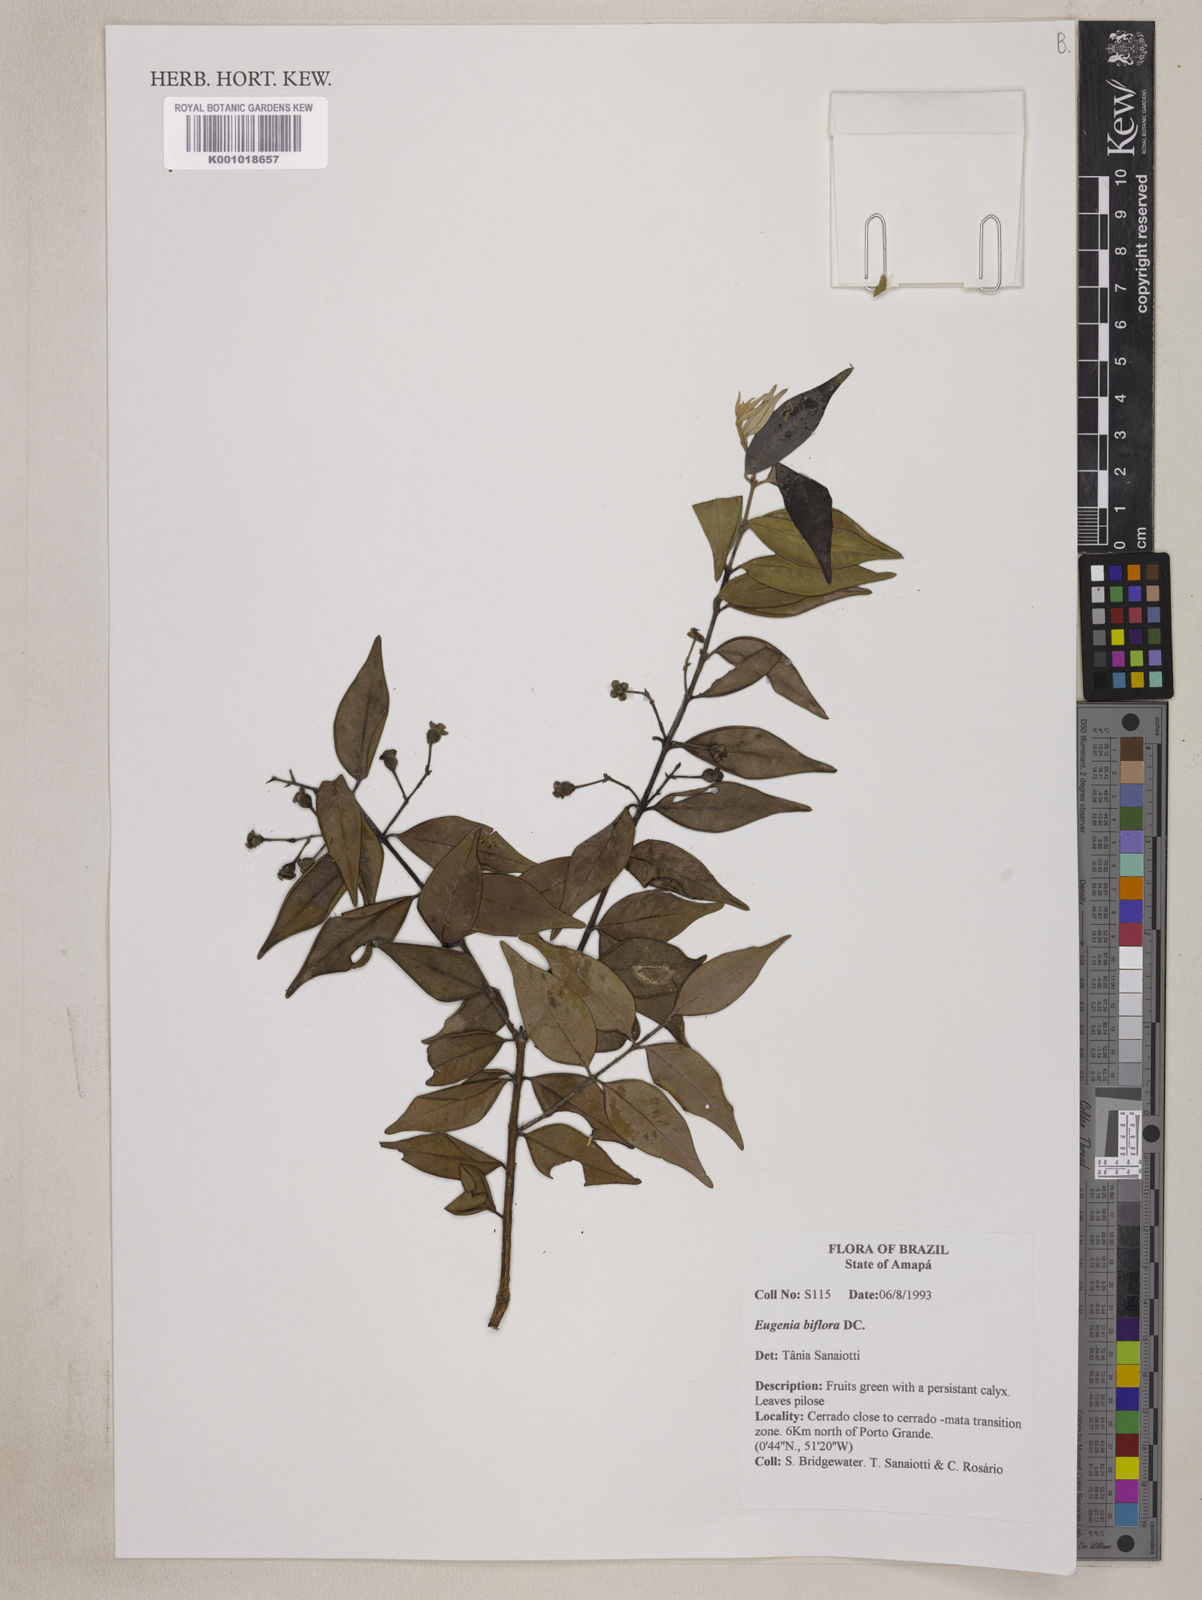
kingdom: Plantae
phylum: Tracheophyta
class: Magnoliopsida
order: Myrtales
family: Myrtaceae
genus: Eugenia
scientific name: Eugenia biflora
